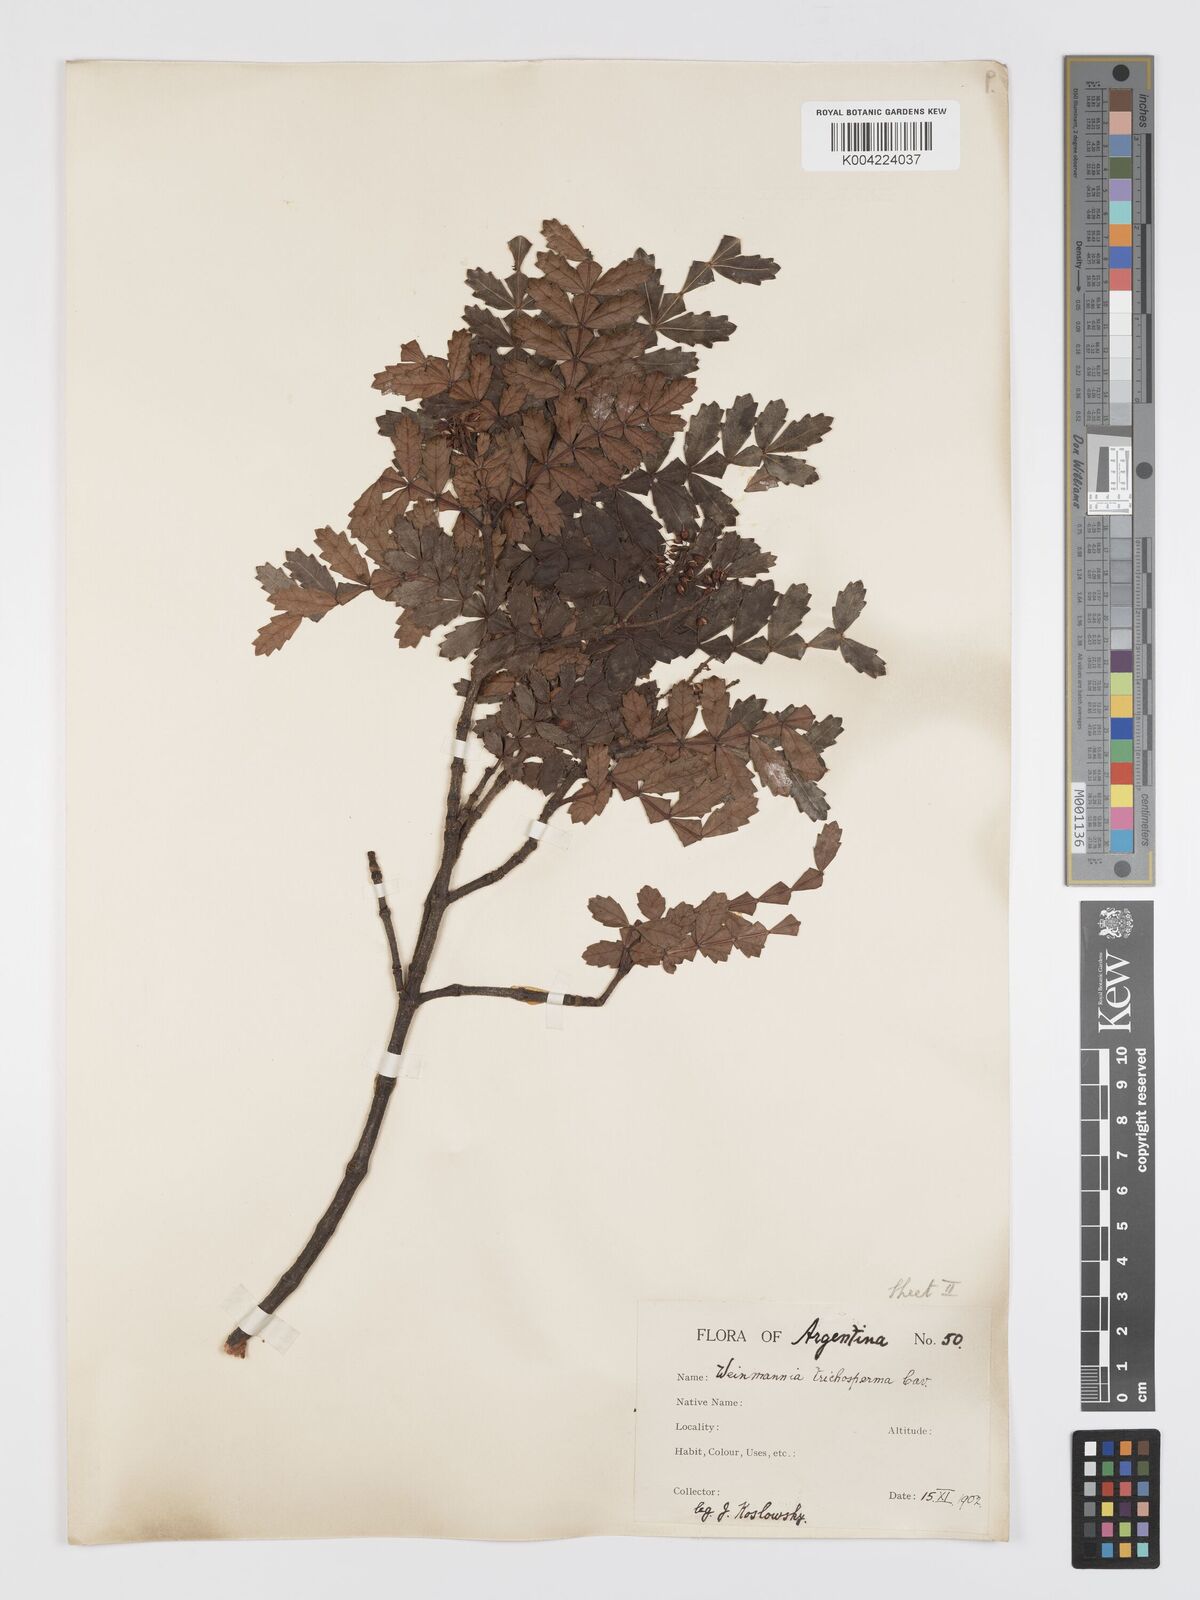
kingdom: Plantae
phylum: Tracheophyta
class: Magnoliopsida
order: Oxalidales
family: Cunoniaceae
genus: Weinmannia
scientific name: Weinmannia trichosperma
